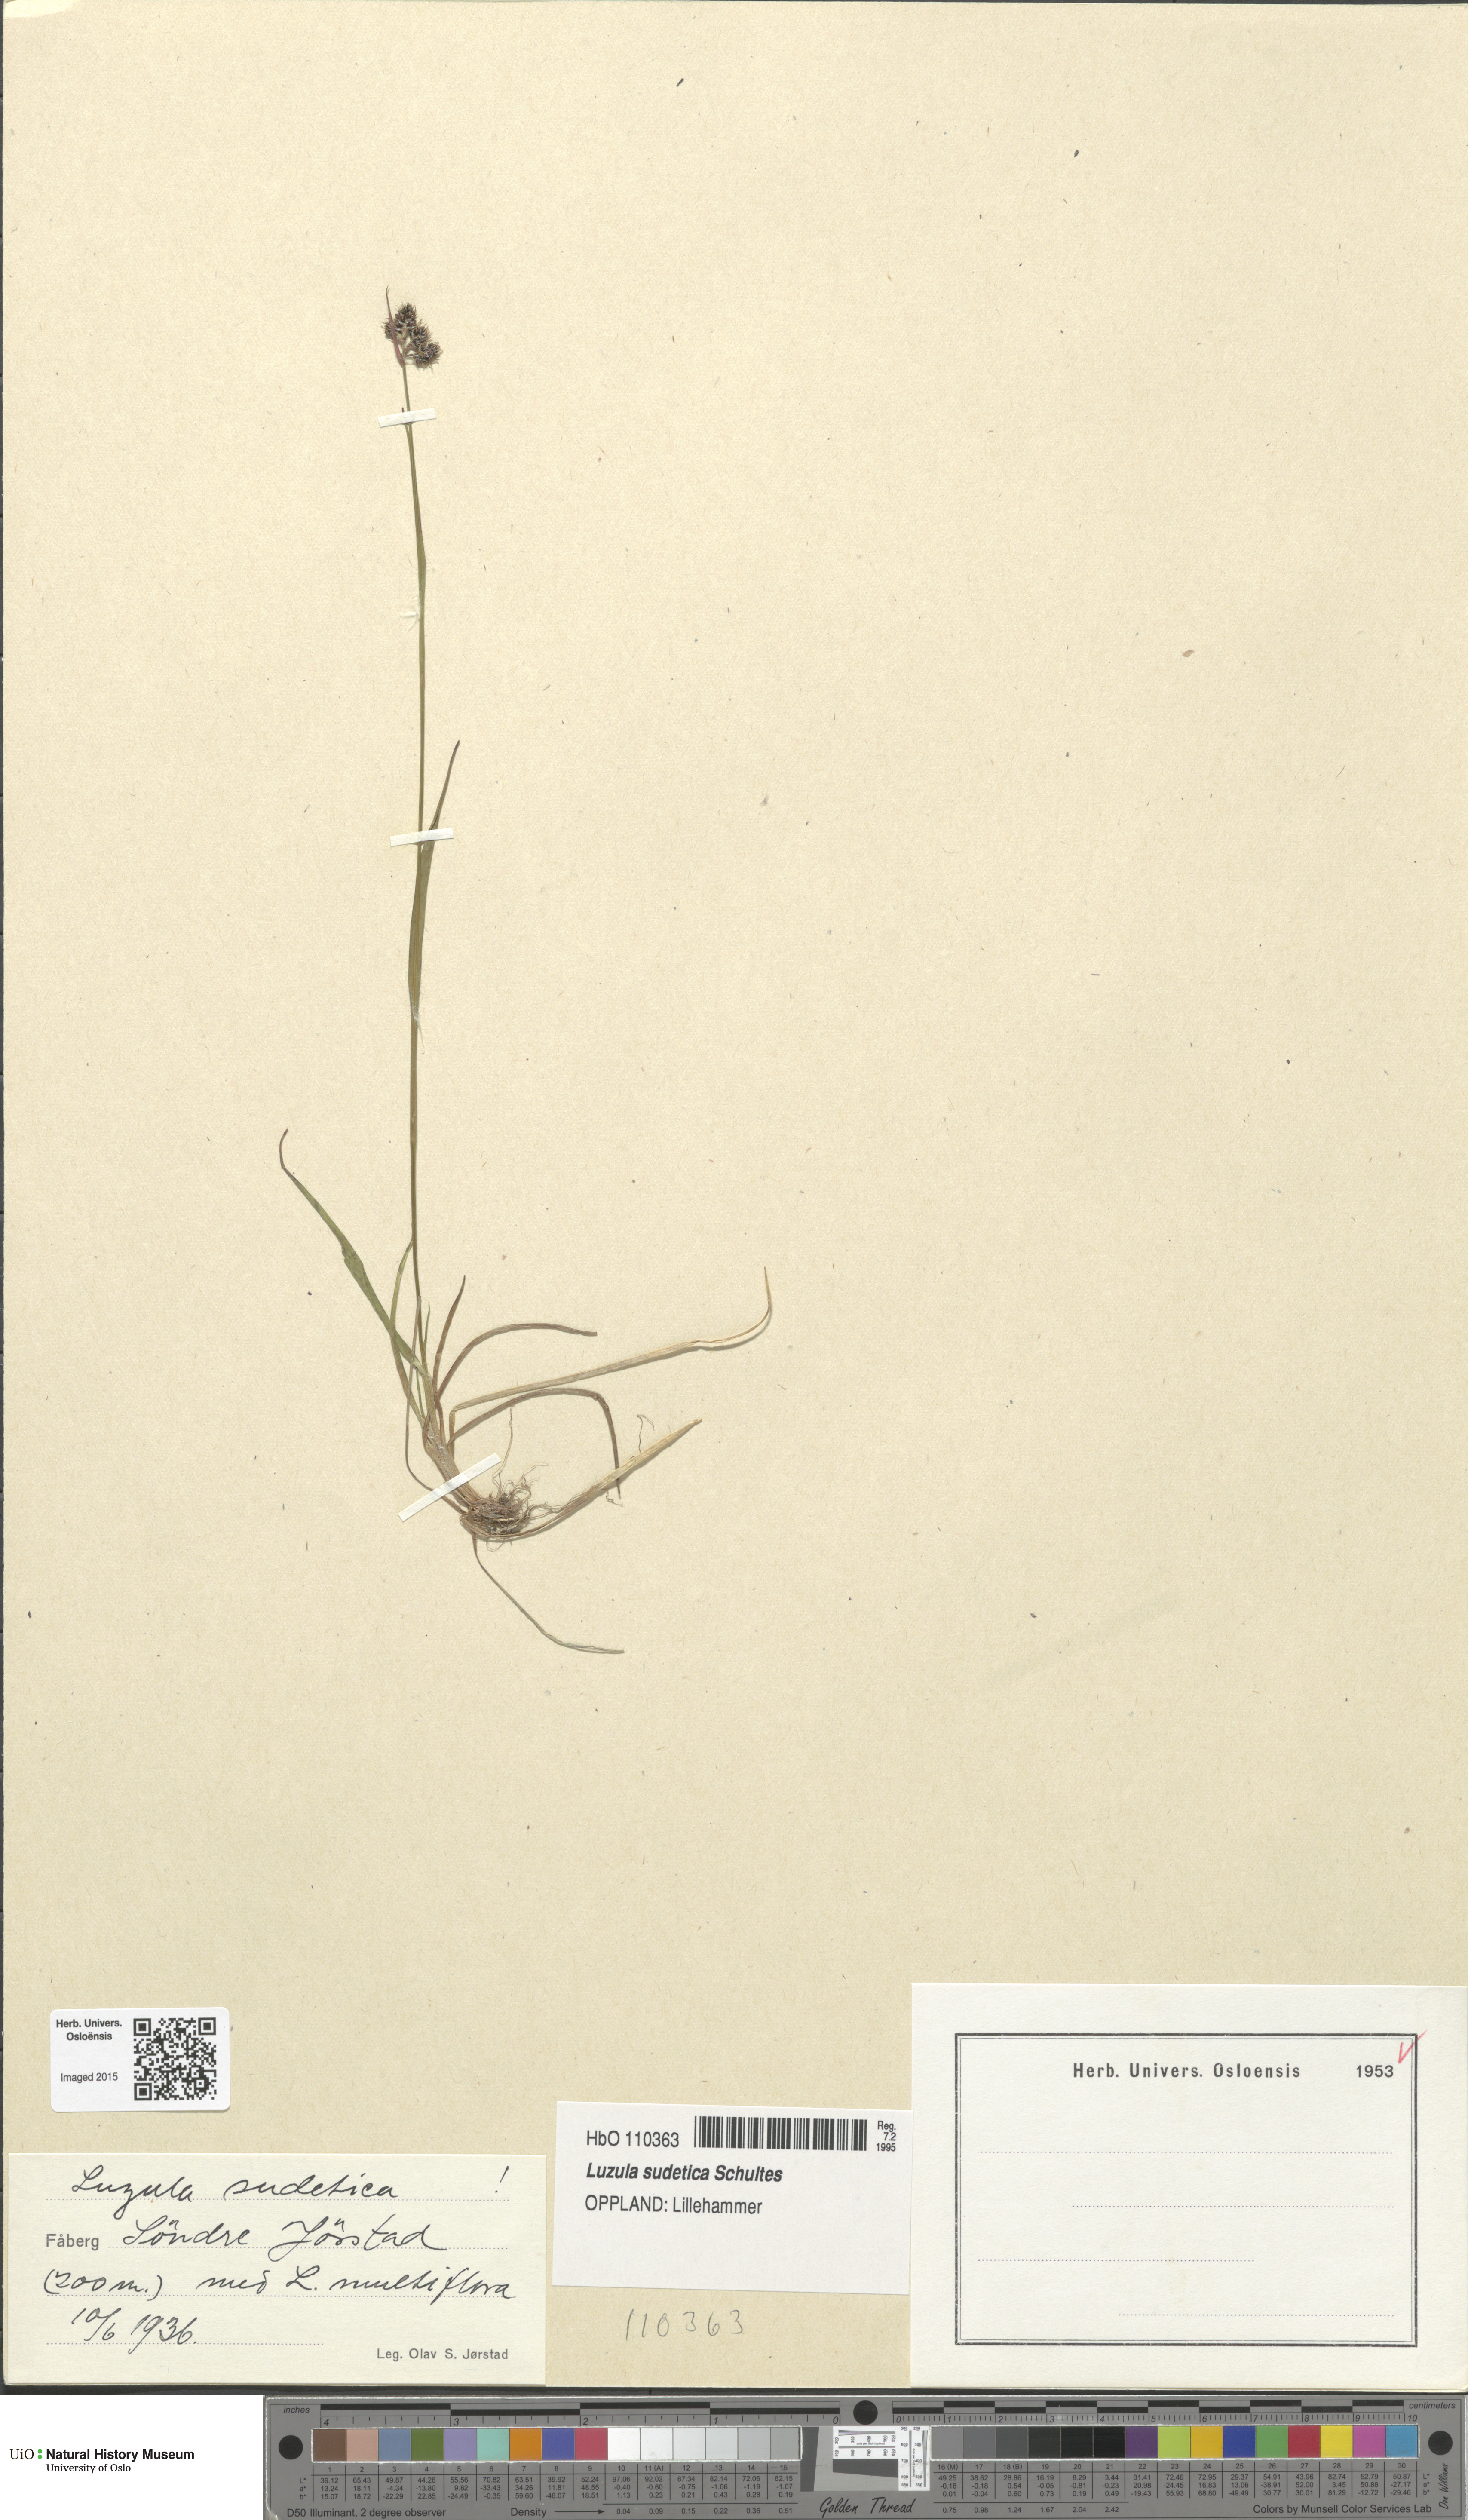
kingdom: Plantae
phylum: Tracheophyta
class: Liliopsida
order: Poales
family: Juncaceae
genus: Luzula
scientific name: Luzula sudetica
